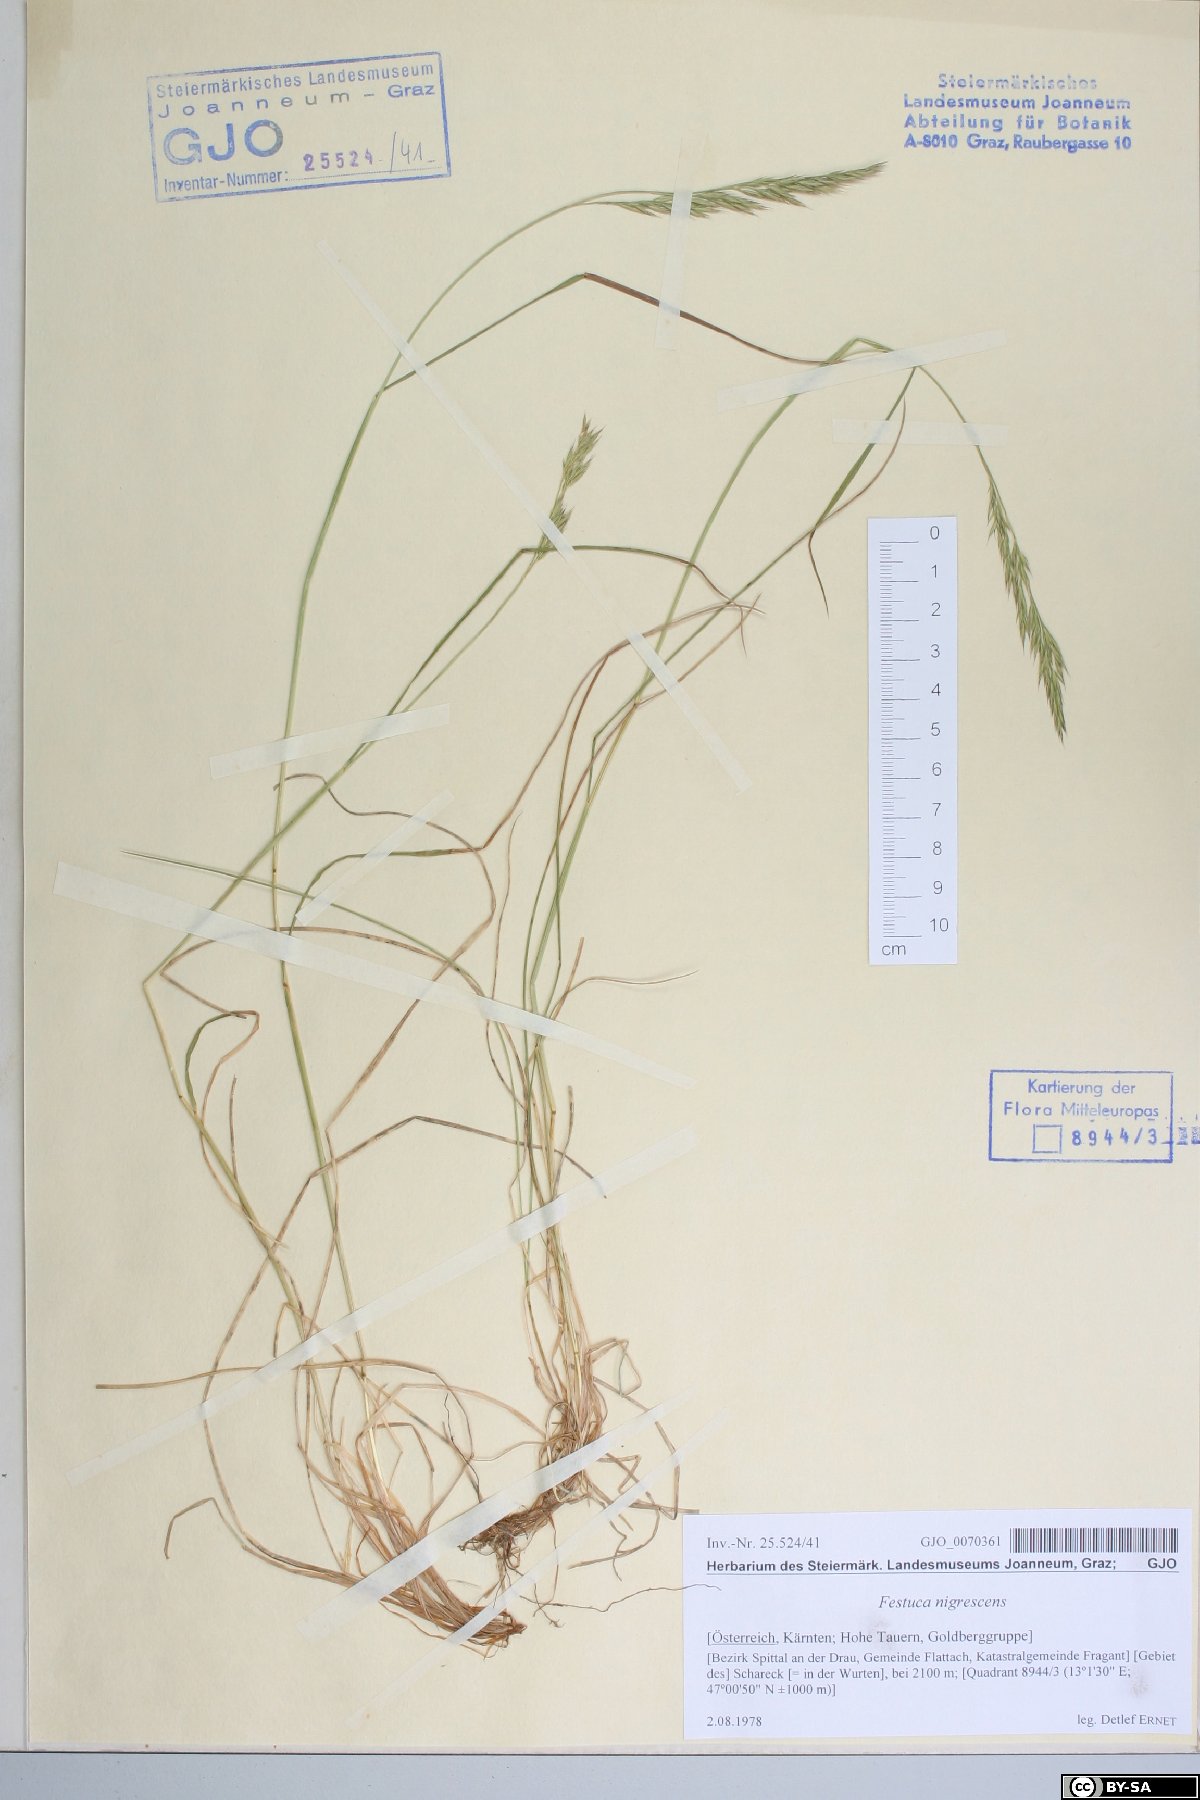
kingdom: Plantae
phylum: Tracheophyta
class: Liliopsida
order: Poales
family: Poaceae
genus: Festuca
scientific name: Festuca nigrescens
